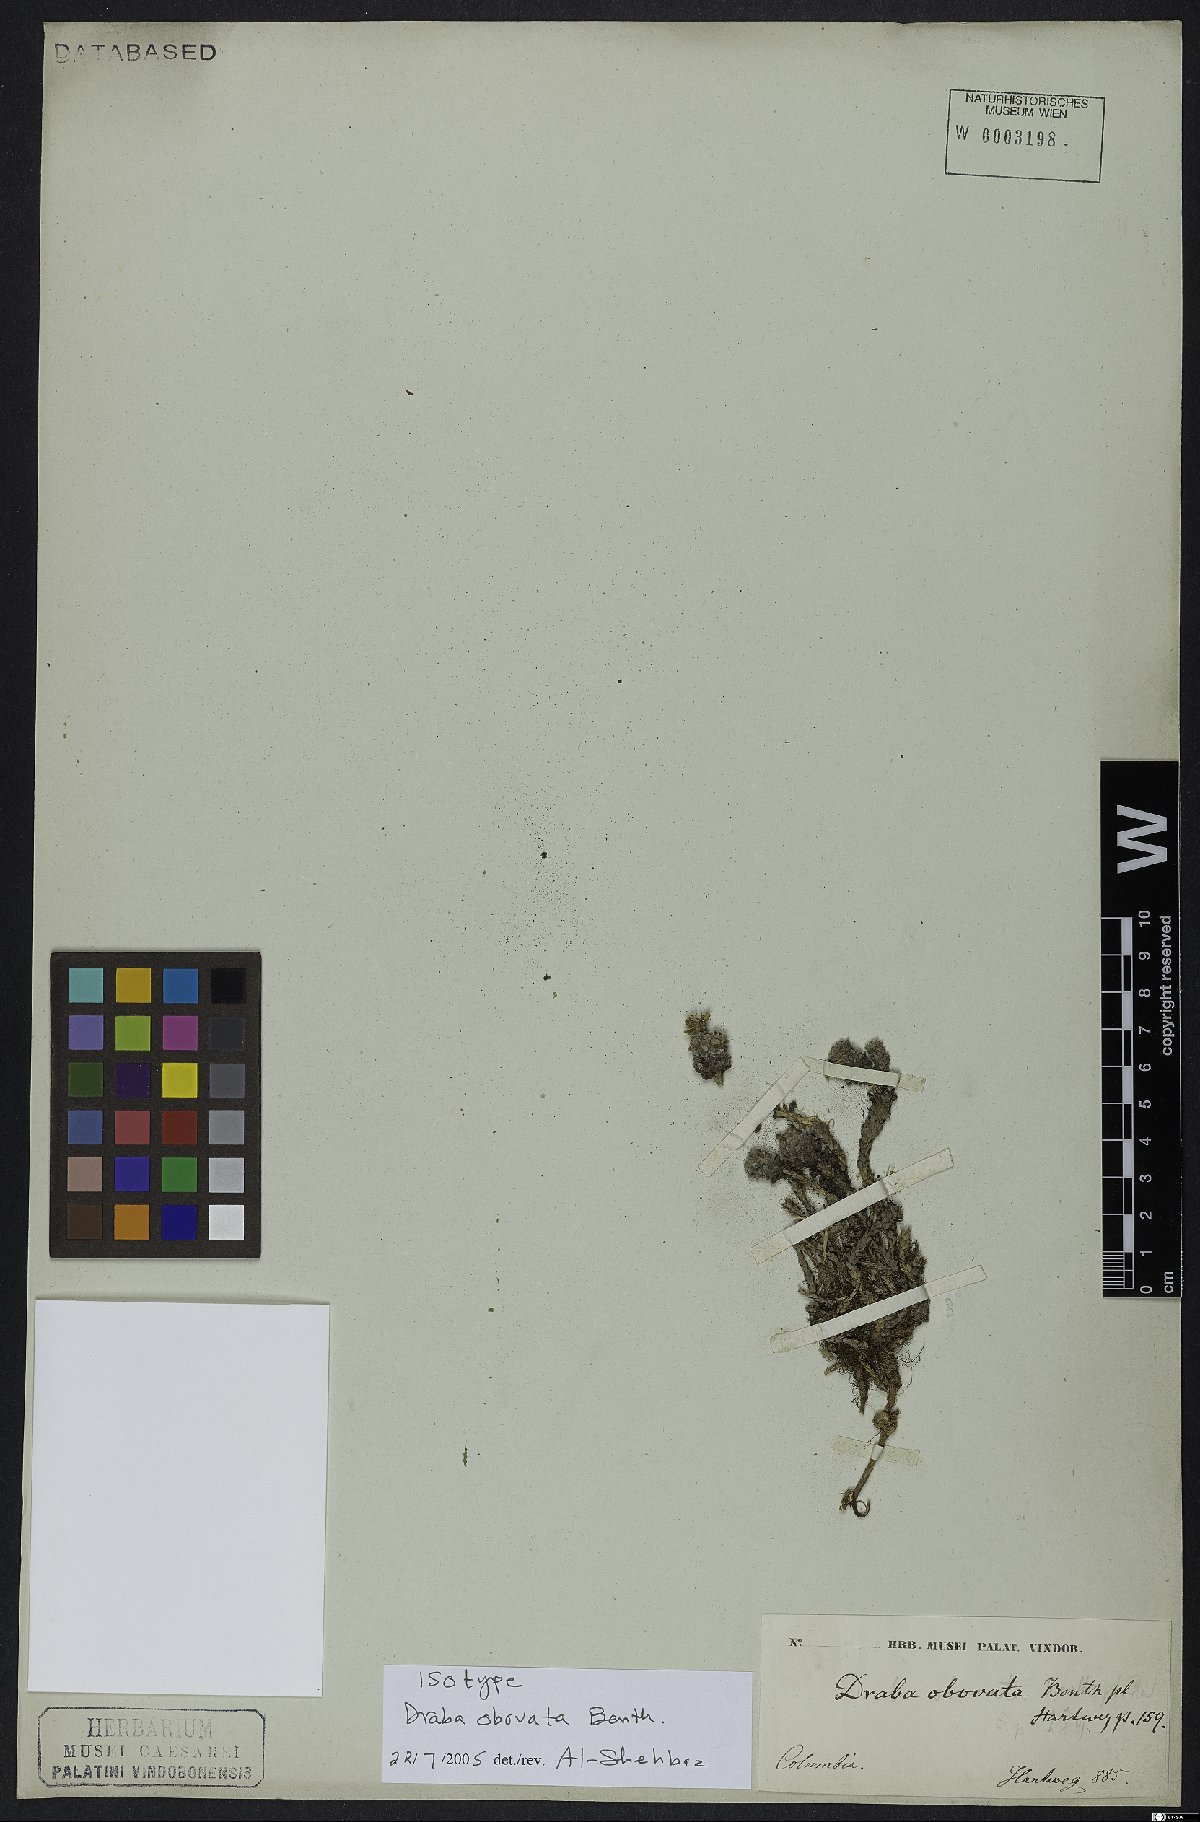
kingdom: Plantae
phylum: Tracheophyta
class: Magnoliopsida
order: Brassicales
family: Brassicaceae
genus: Draba
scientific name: Draba obovata
